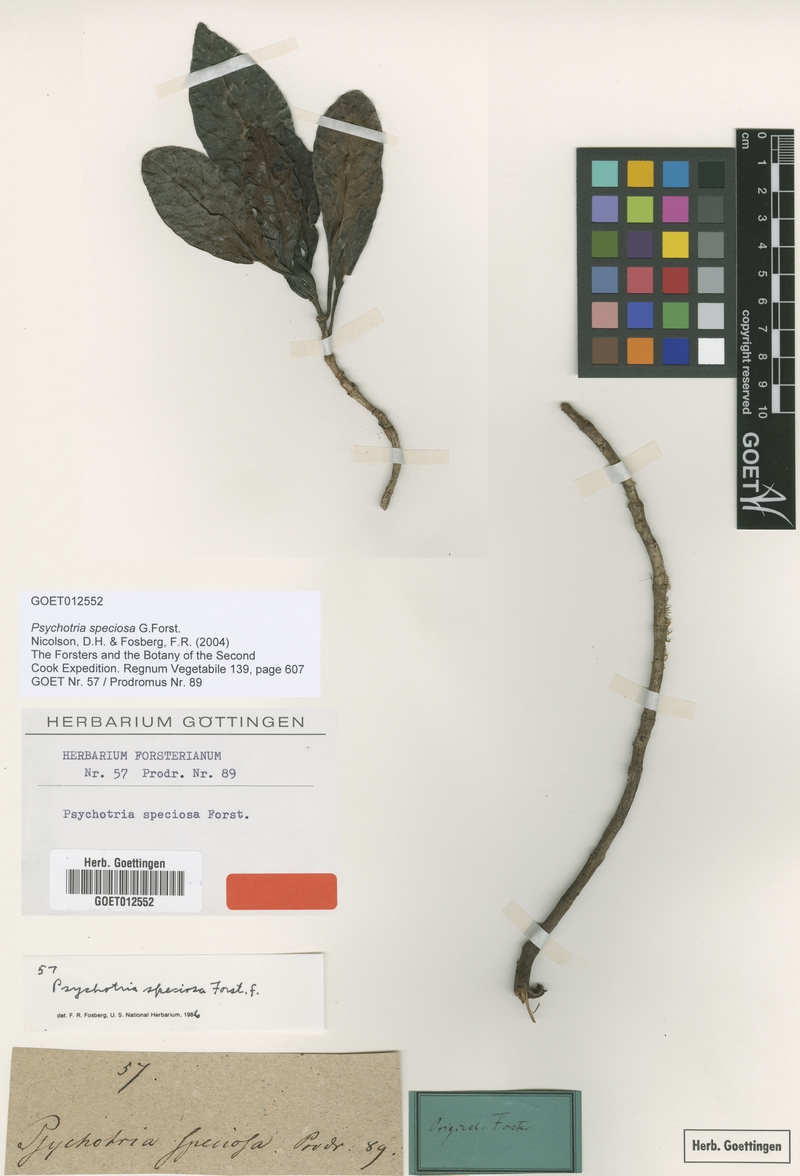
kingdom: Plantae
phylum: Tracheophyta
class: Magnoliopsida
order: Gentianales
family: Rubiaceae
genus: Psychotria
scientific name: Psychotria speciosa
